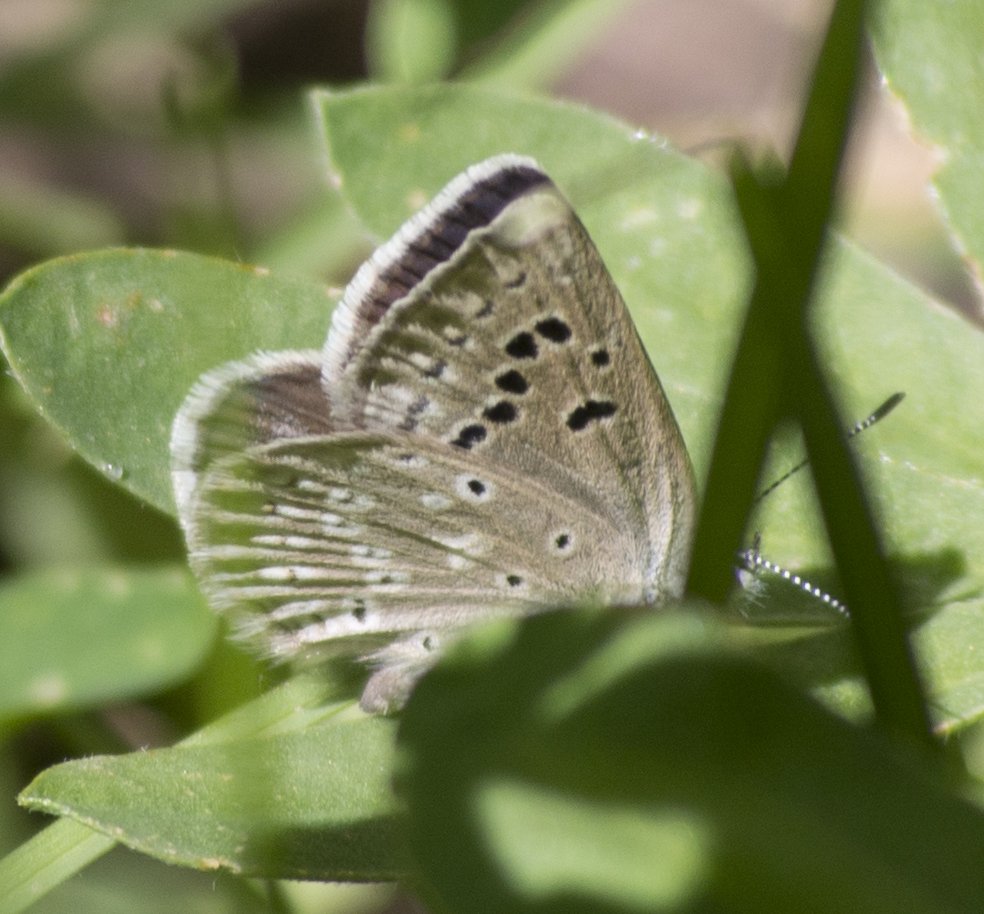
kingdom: Animalia
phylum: Arthropoda
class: Insecta
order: Lepidoptera
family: Lycaenidae
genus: Icaricia
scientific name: Icaricia icarioides
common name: Boisduval's Blue
